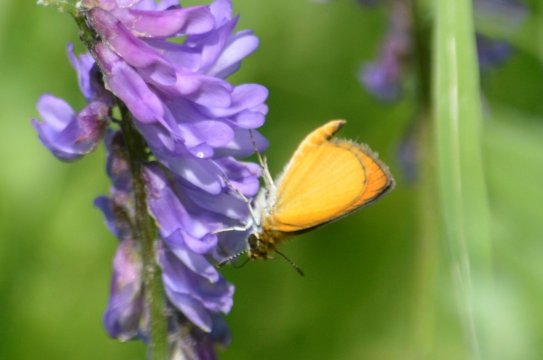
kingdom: Animalia
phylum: Arthropoda
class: Insecta
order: Lepidoptera
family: Hesperiidae
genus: Ancyloxypha
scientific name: Ancyloxypha numitor
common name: Least Skipper
